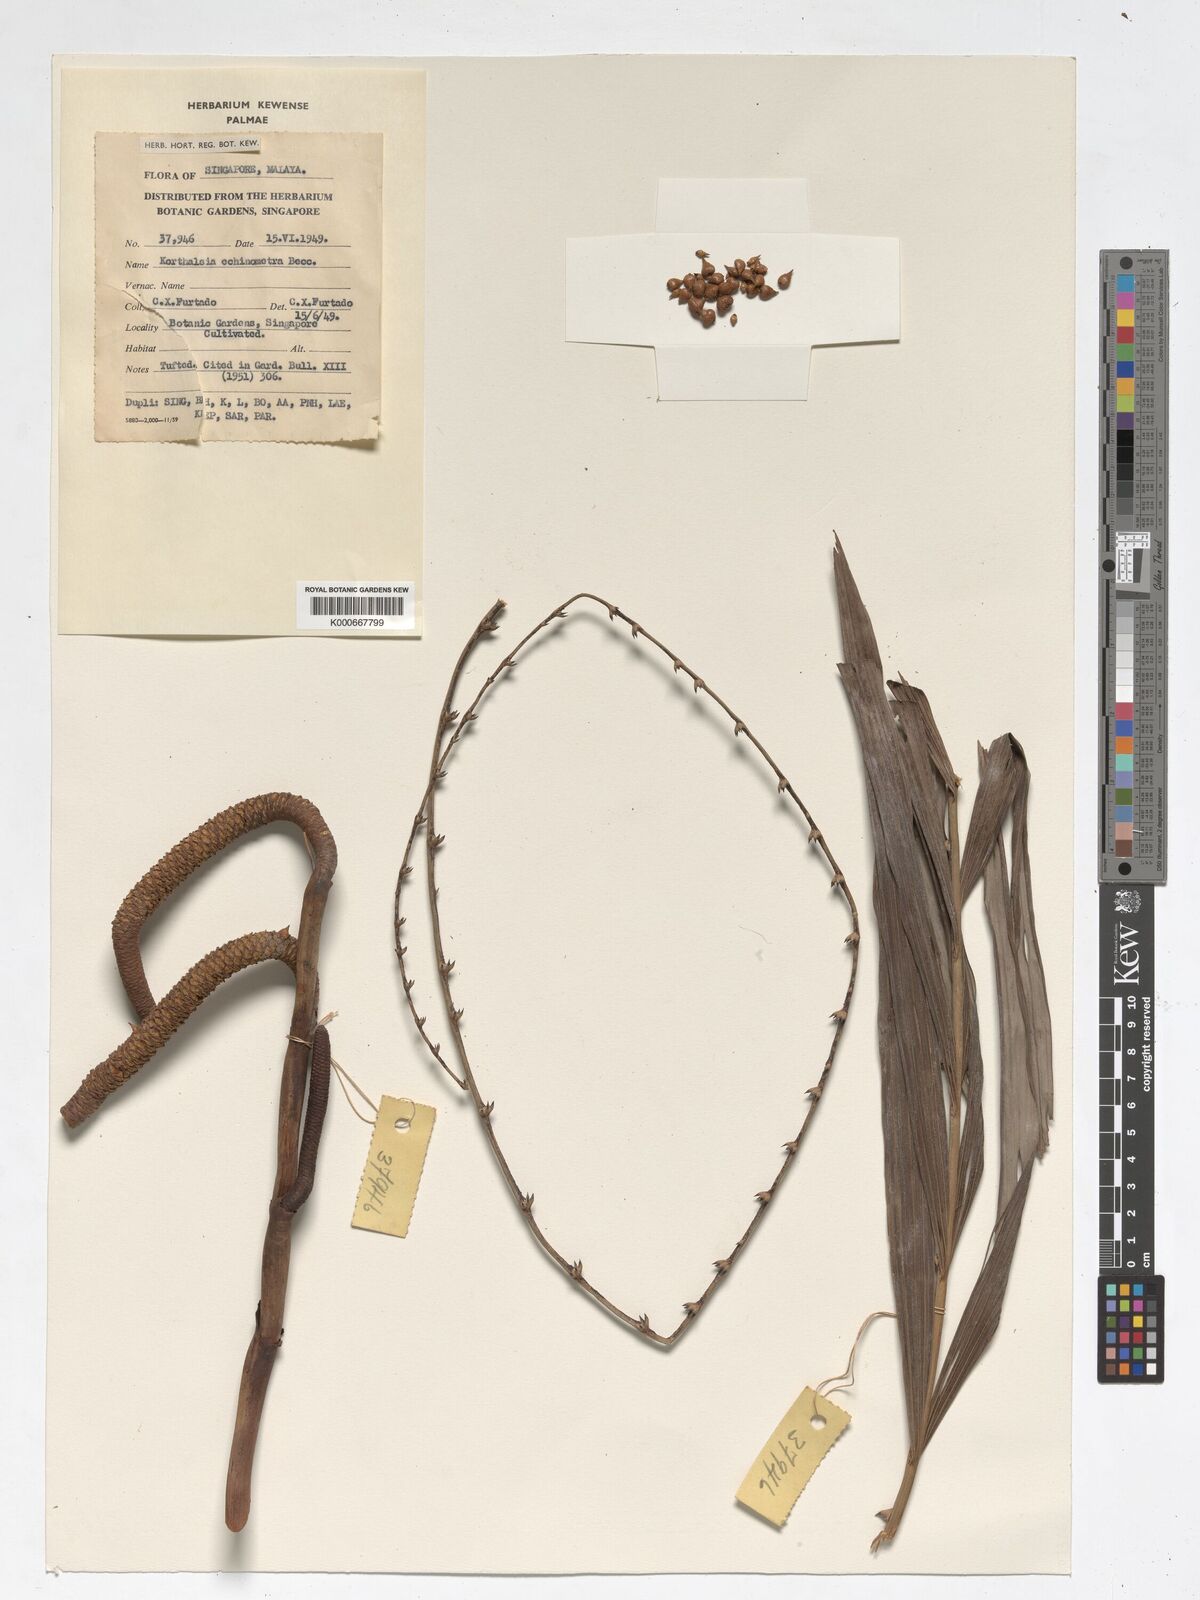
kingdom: Plantae
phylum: Tracheophyta
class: Liliopsida
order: Arecales
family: Arecaceae
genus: Korthalsia
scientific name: Korthalsia echinometra
